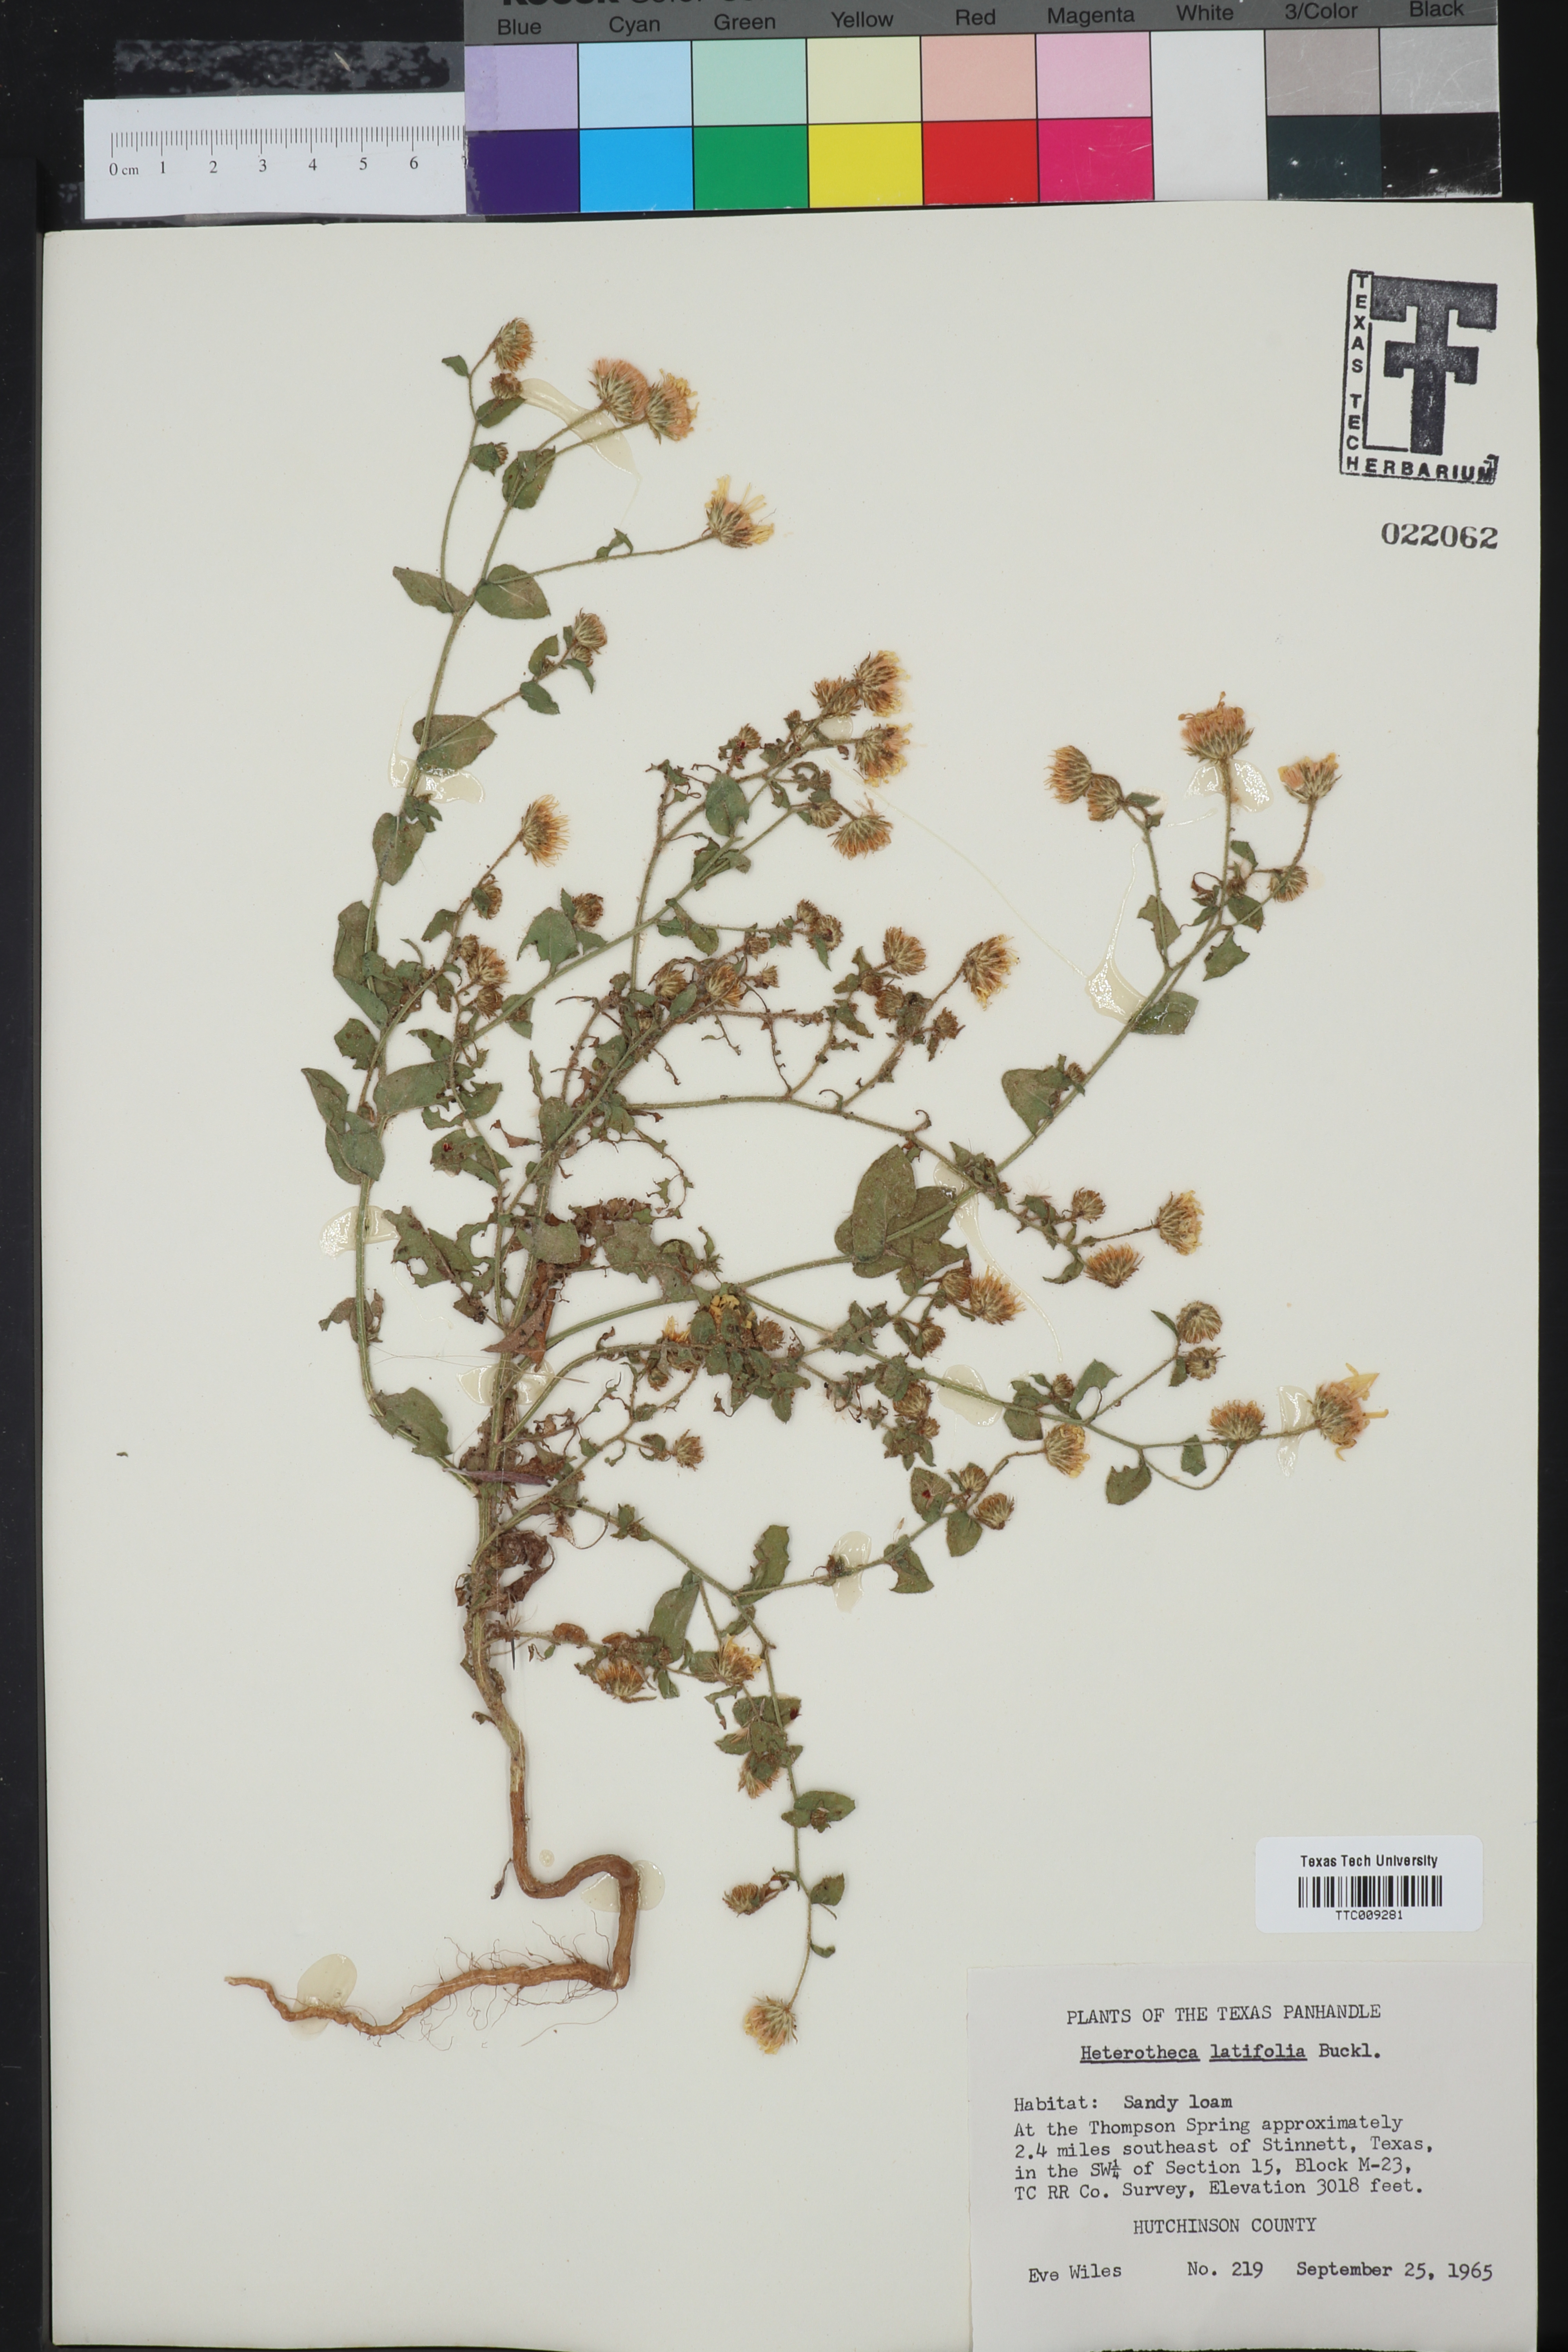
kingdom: Plantae
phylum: Tracheophyta
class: Magnoliopsida
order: Asterales
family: Asteraceae
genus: Heterotheca
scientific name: Heterotheca subaxillaris
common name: Camphorweed
